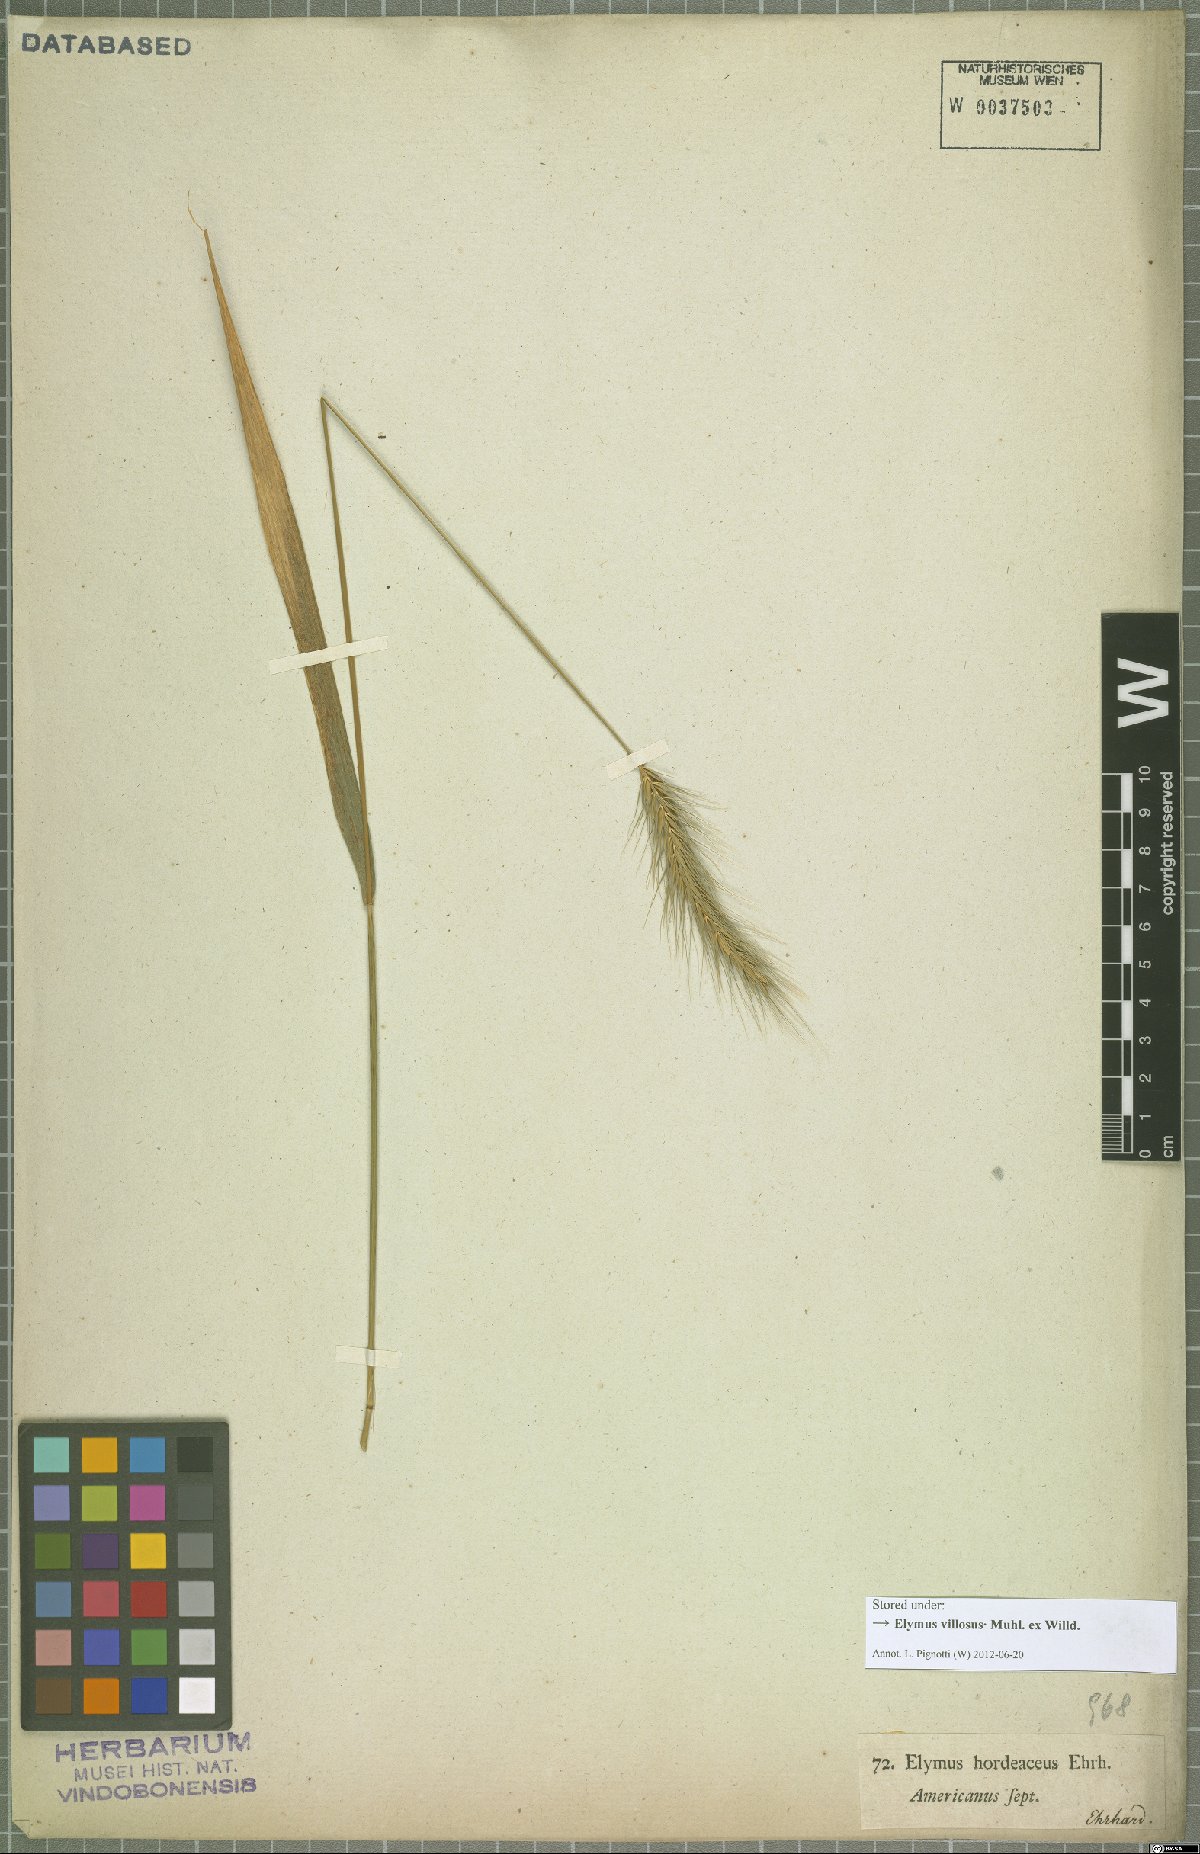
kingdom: Plantae
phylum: Tracheophyta
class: Liliopsida
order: Poales
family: Poaceae
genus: Elymus
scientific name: Elymus villosus
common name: Downy wild rye
